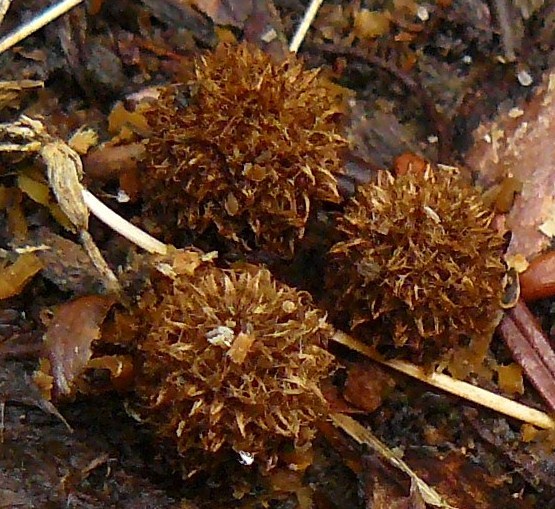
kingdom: Fungi
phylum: Basidiomycota
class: Agaricomycetes
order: Agaricales
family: Agaricaceae
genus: Cyathus
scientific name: Cyathus striatus
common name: stribet redesvamp
